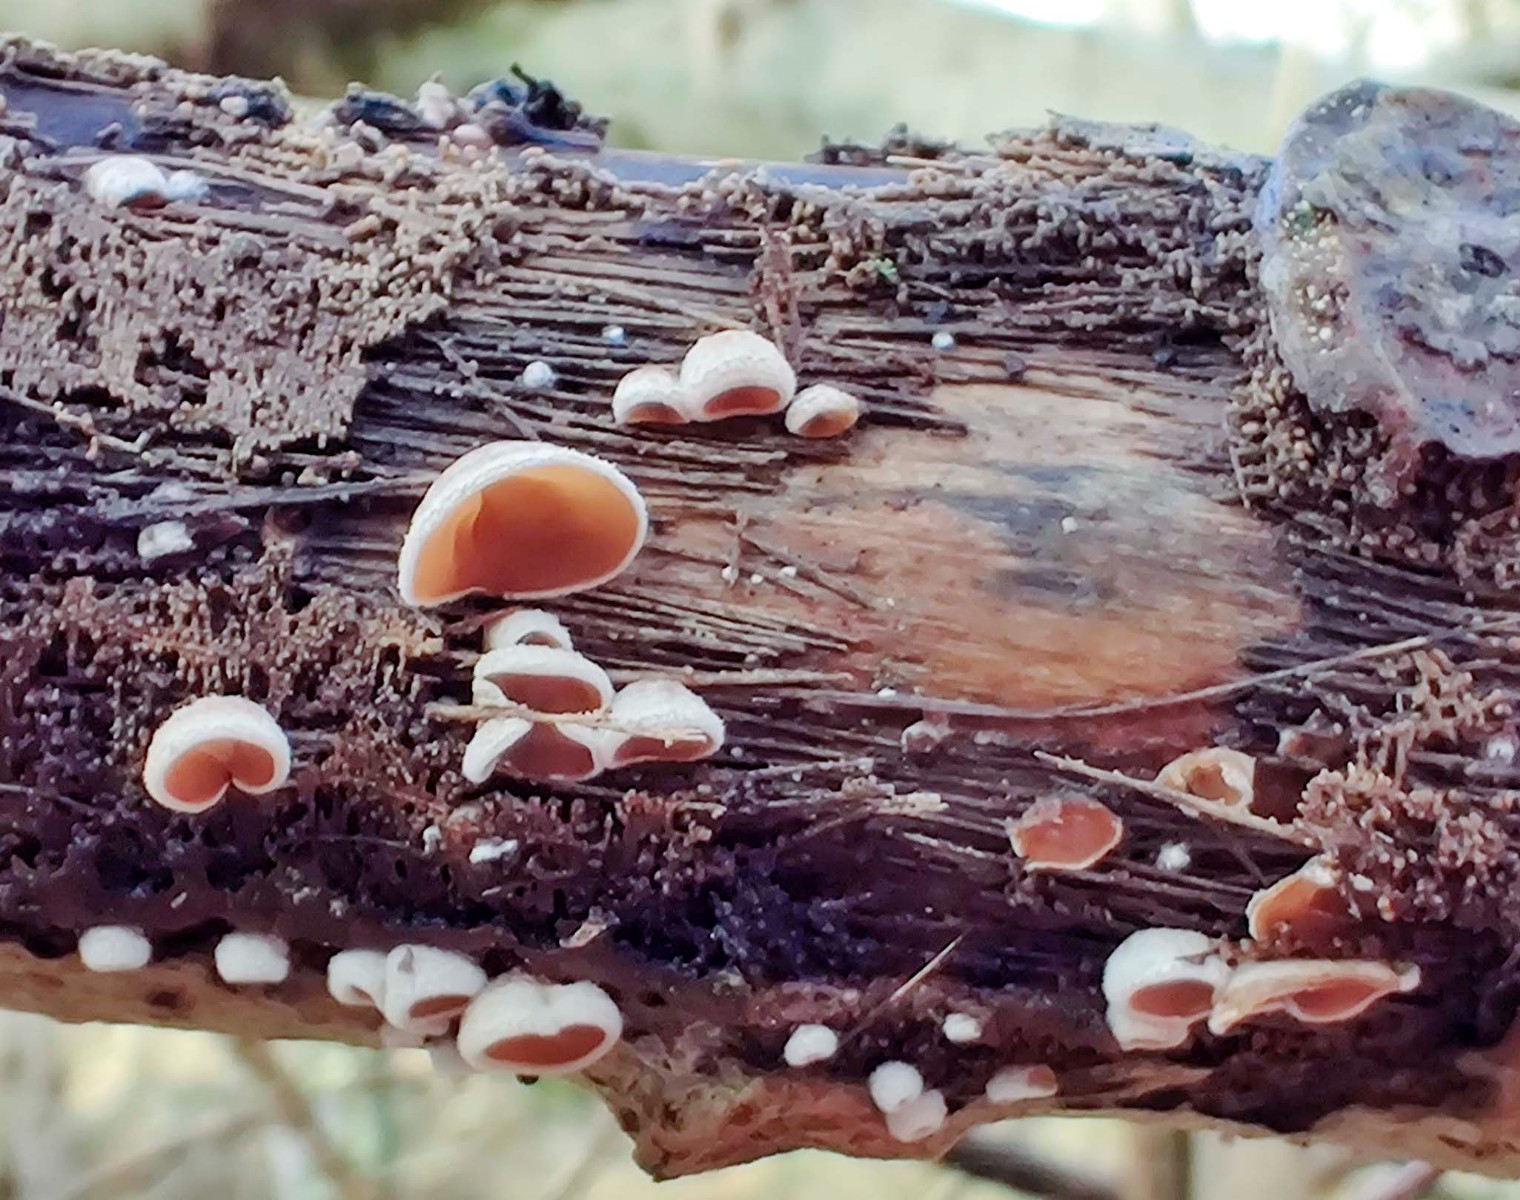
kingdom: Fungi
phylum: Basidiomycota
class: Agaricomycetes
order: Agaricales
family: Schizophyllaceae
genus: Schizophyllum
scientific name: Schizophyllum amplum
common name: poppel-hængeøre
